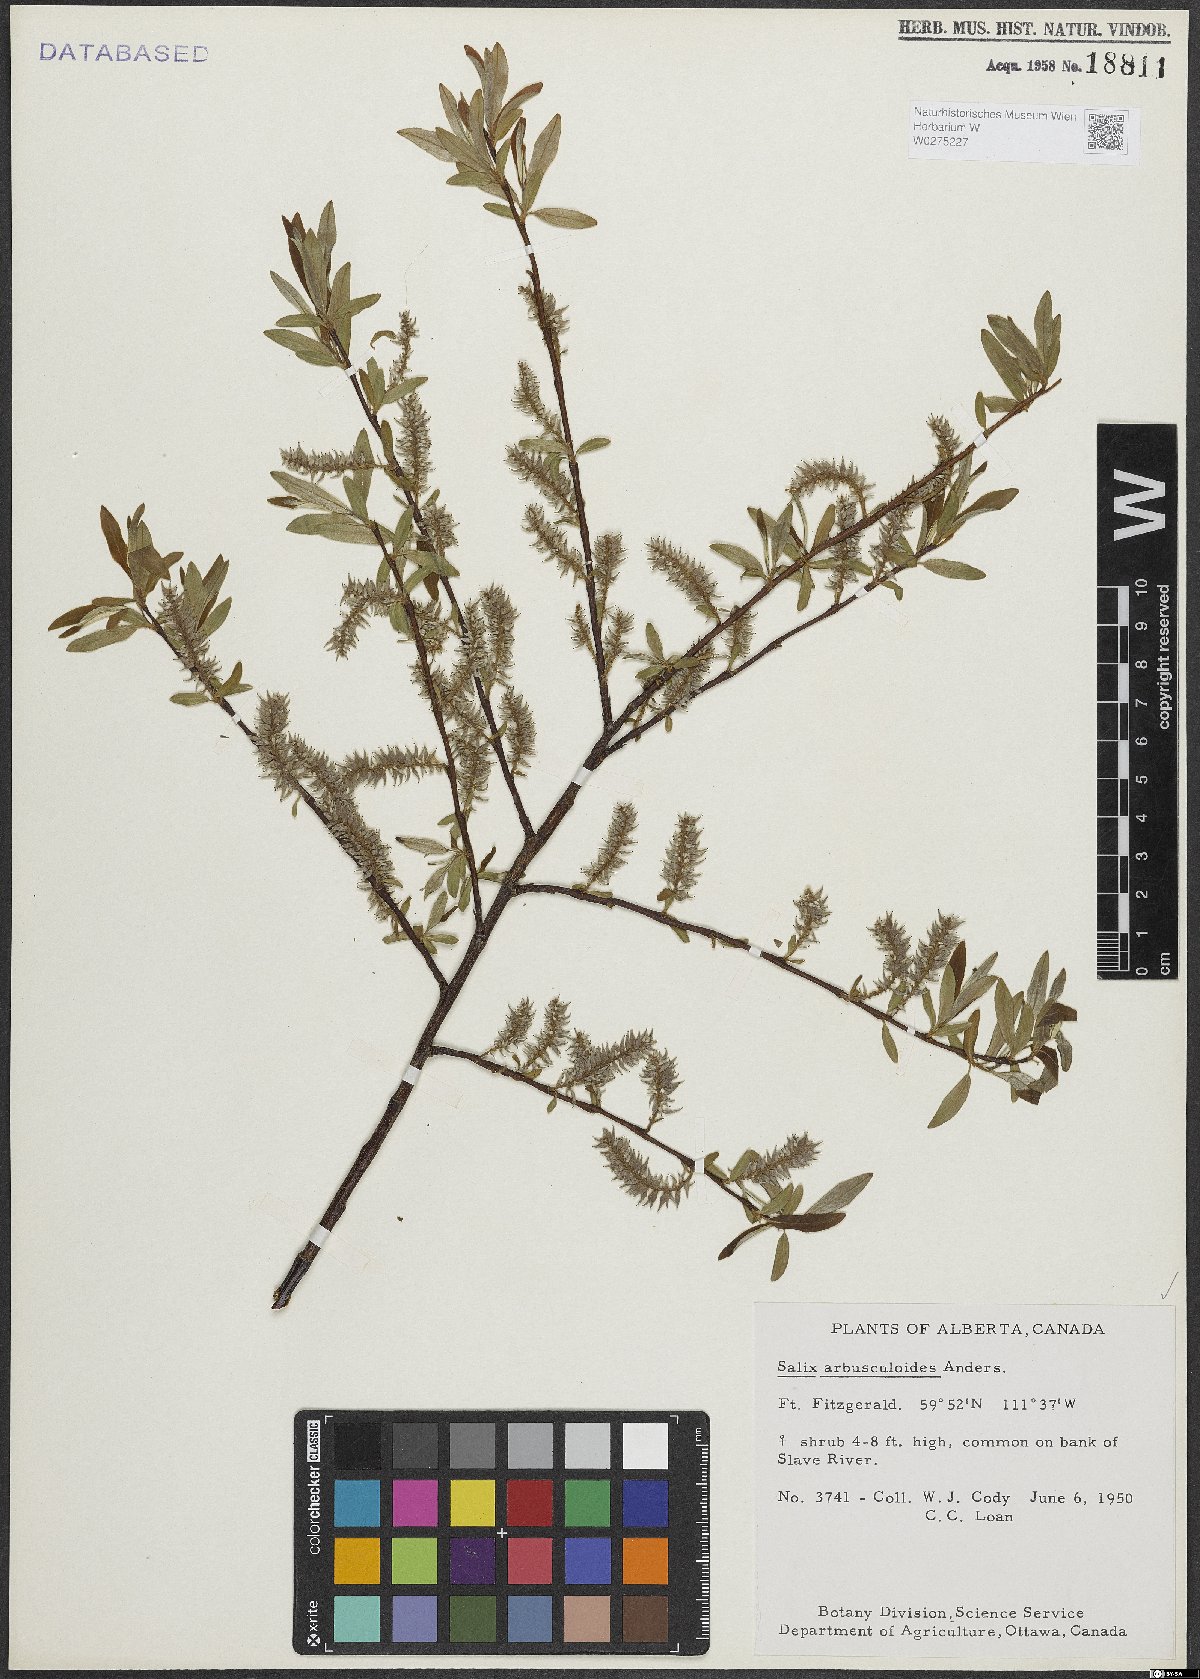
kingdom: Plantae
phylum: Tracheophyta
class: Magnoliopsida
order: Malpighiales
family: Salicaceae
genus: Salix
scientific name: Salix arbusculoides
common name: Little-tree willow
